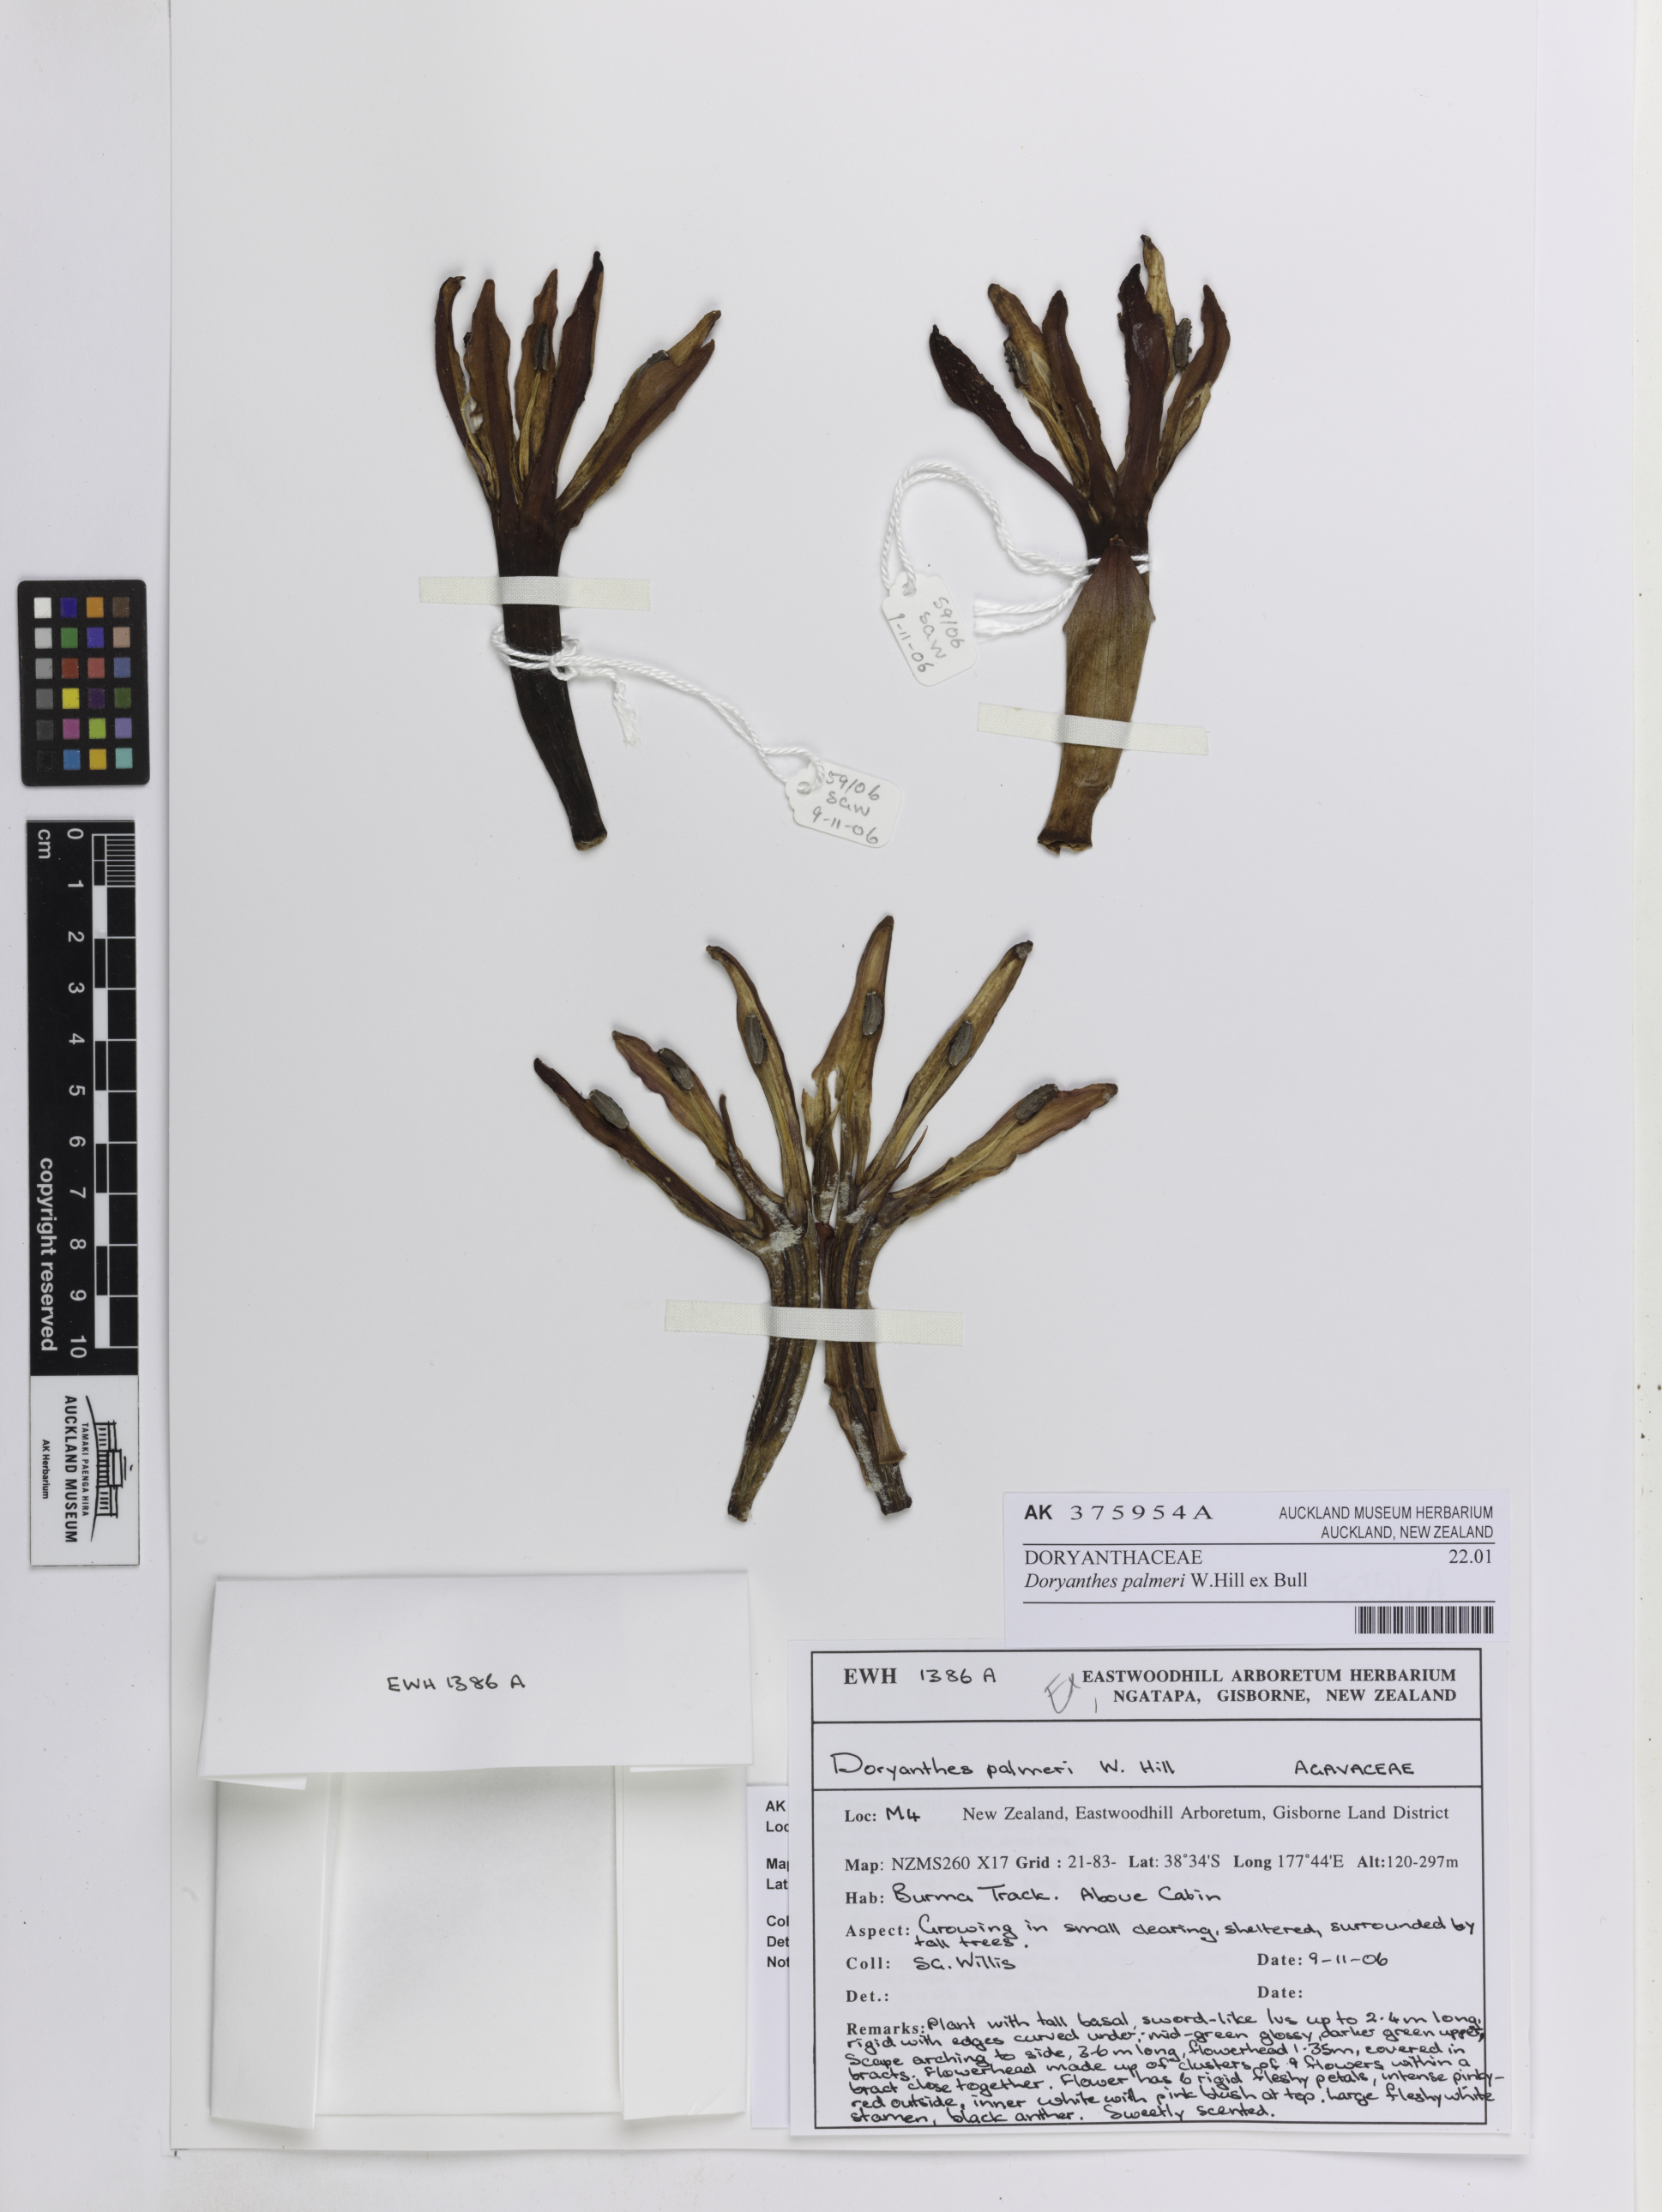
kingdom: Plantae
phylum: Tracheophyta
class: Liliopsida
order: Asparagales
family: Doryanthaceae
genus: Doryanthes
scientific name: Doryanthes palmeri
